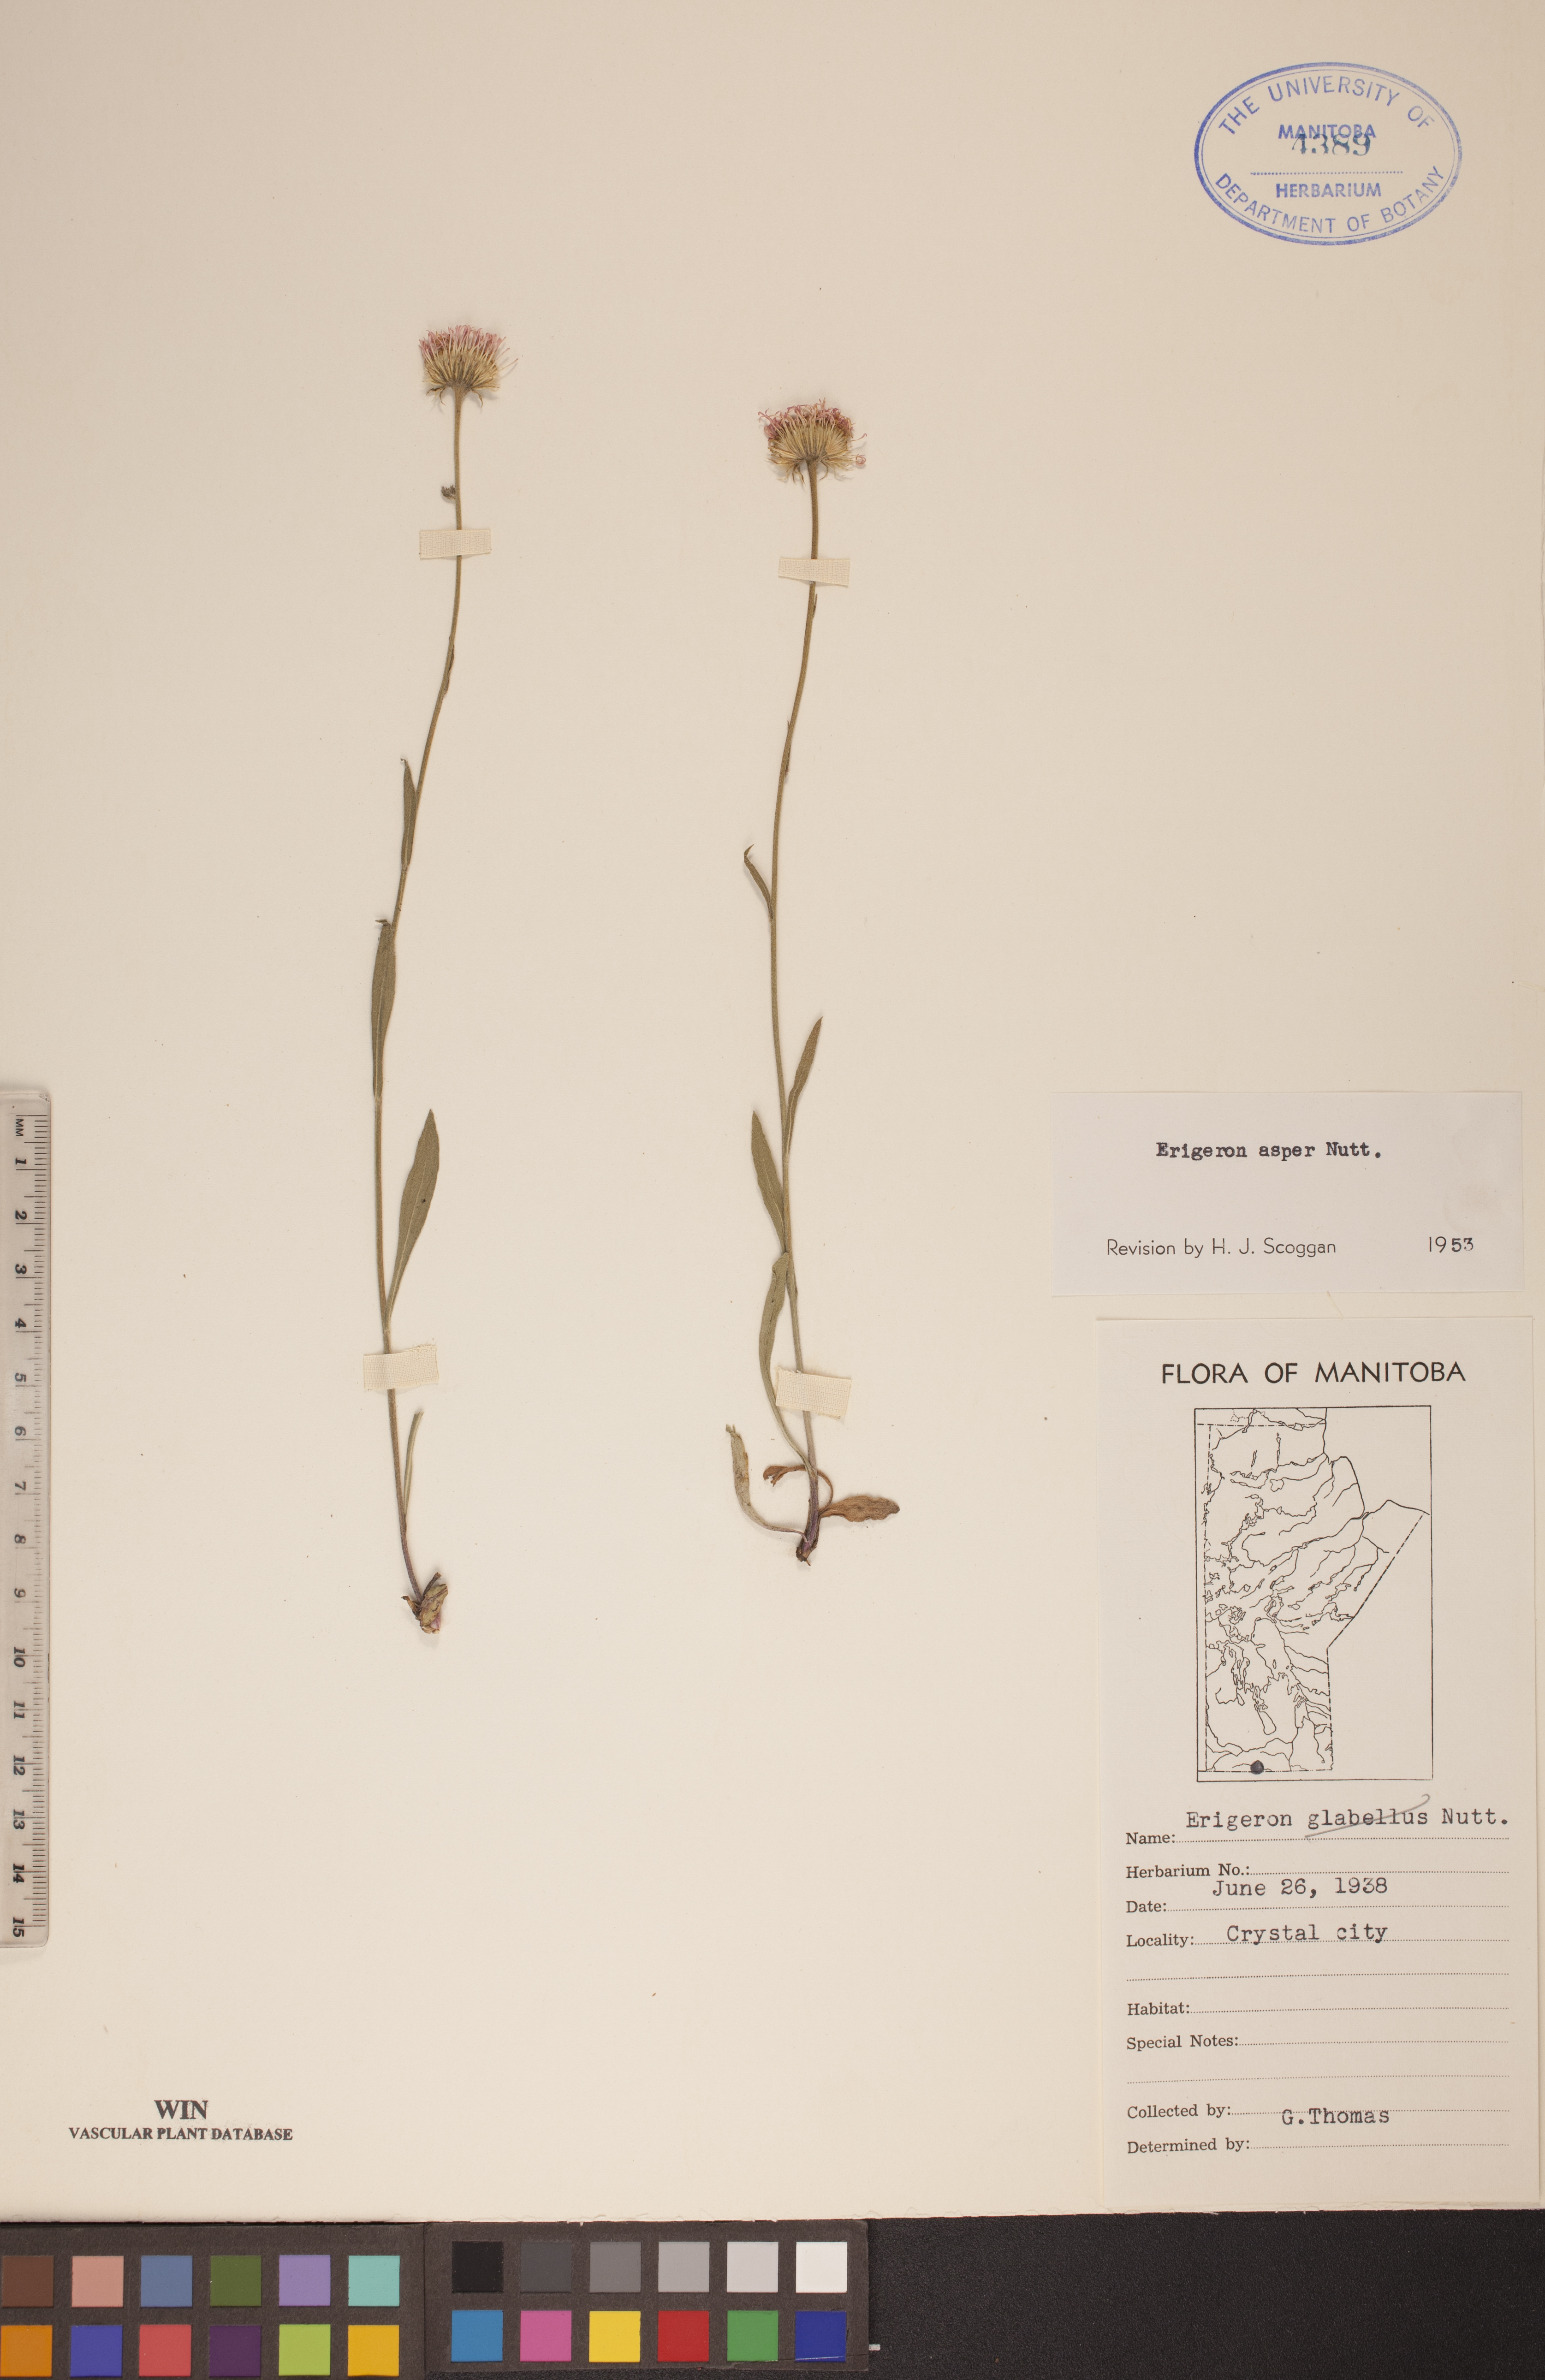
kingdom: Plantae
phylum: Tracheophyta
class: Magnoliopsida
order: Asterales
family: Asteraceae
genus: Erigeron
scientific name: Erigeron glabellus
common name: Smooth fleabane
